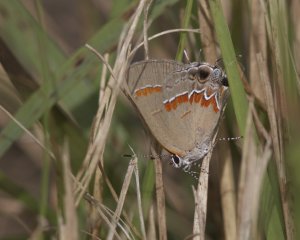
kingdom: Animalia
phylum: Arthropoda
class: Insecta
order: Lepidoptera
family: Lycaenidae
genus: Calycopis
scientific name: Calycopis cecrops
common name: Red-banded Hairstreak
